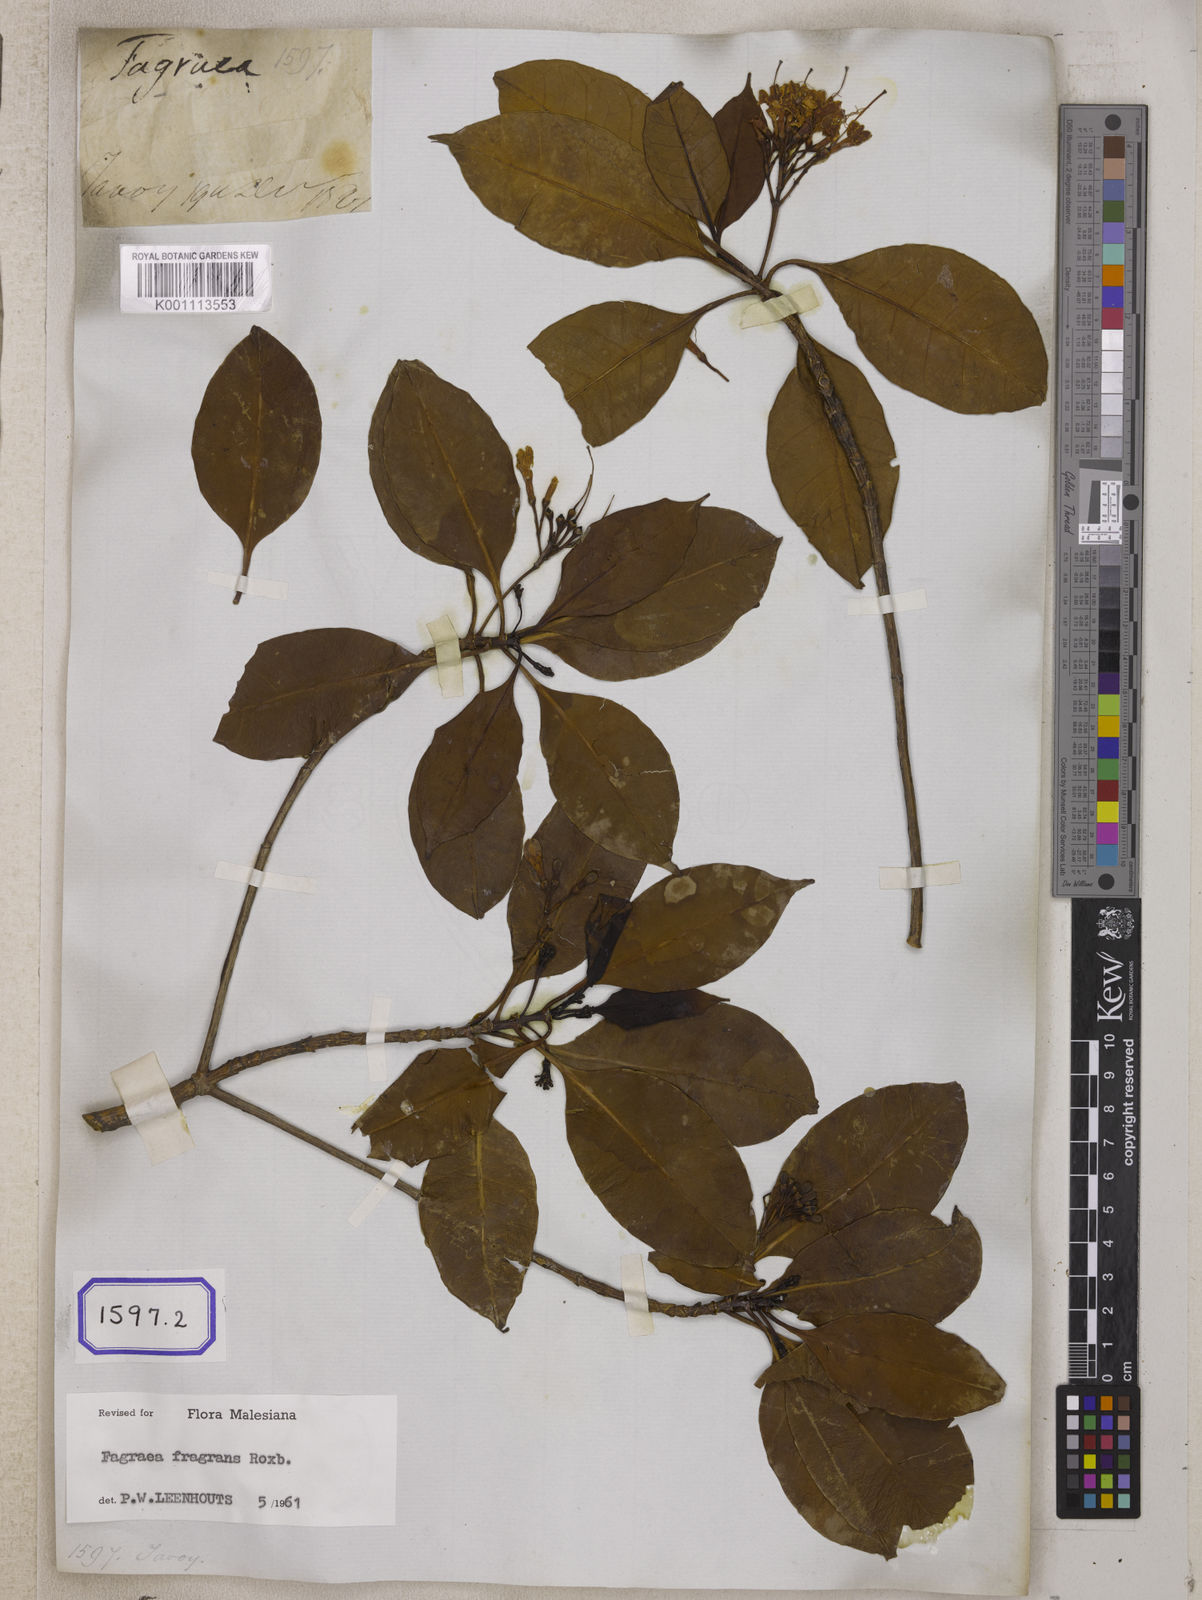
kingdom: Plantae
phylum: Tracheophyta
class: Magnoliopsida
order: Gentianales
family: Gentianaceae
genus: Cyrtophyllum
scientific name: Cyrtophyllum fragrans
